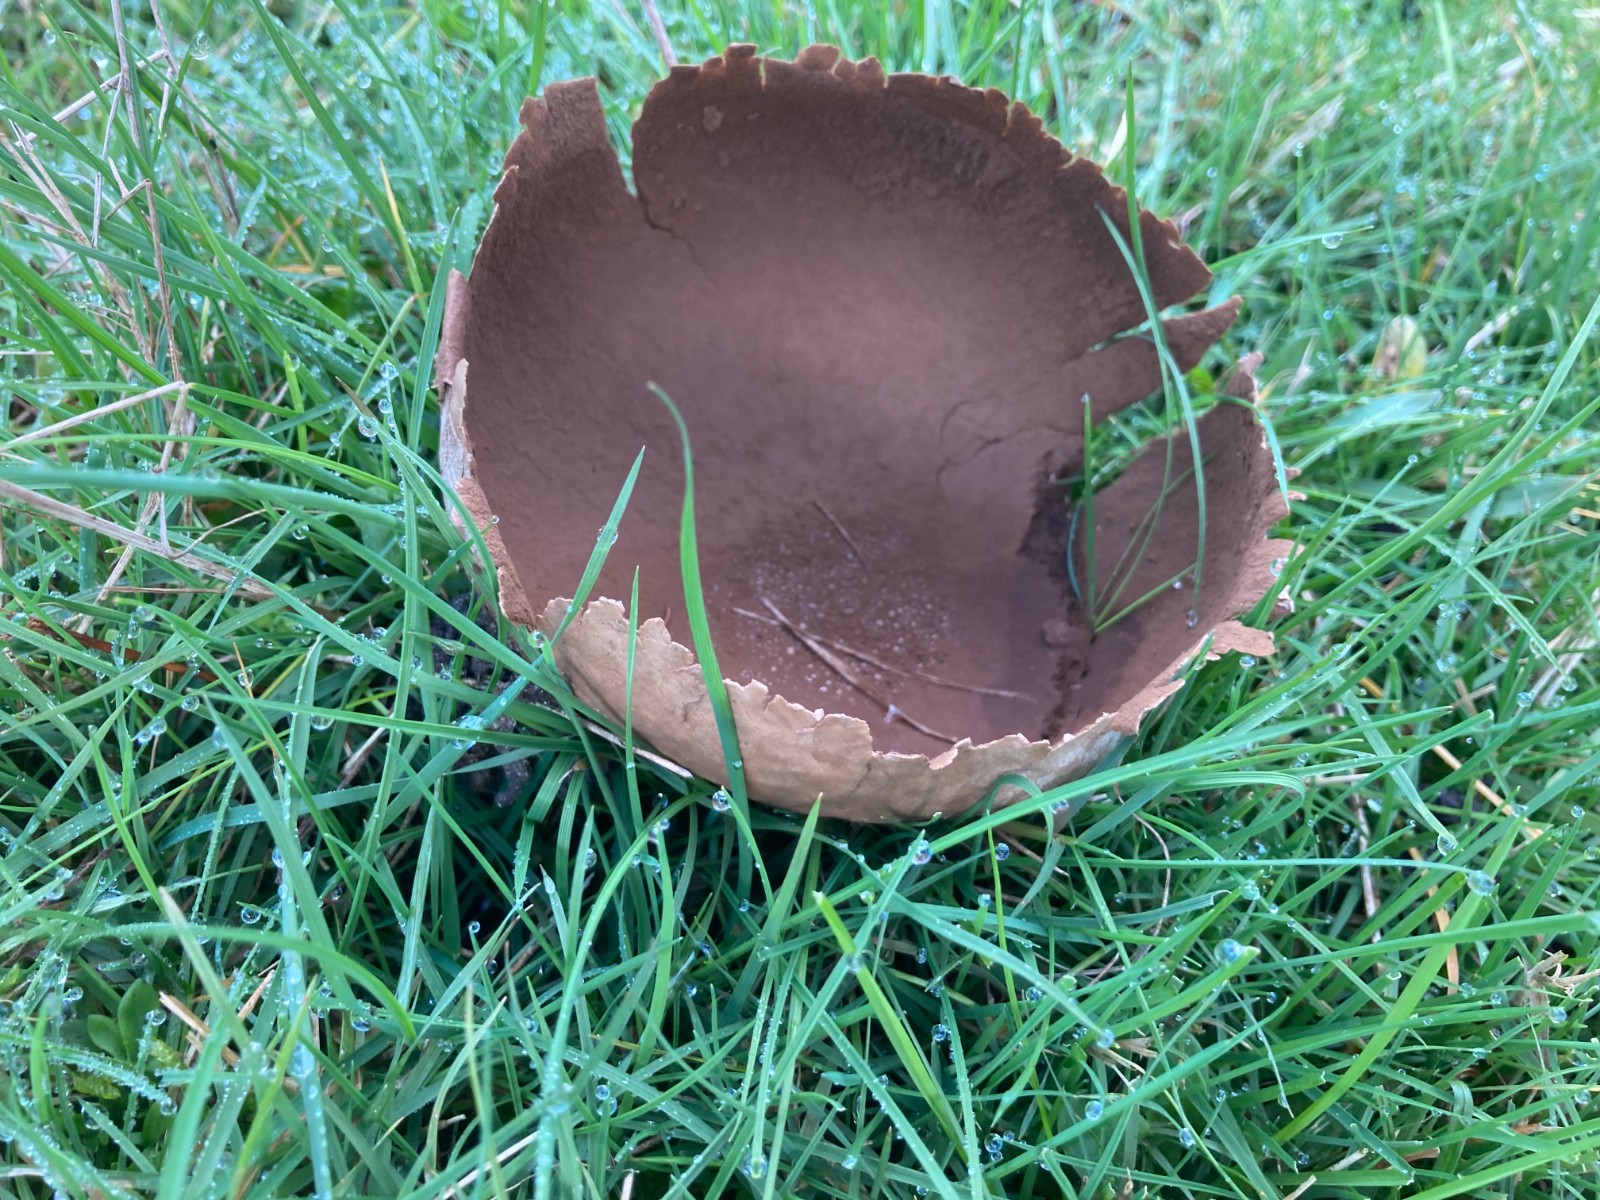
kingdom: Fungi
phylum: Basidiomycota
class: Agaricomycetes
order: Agaricales
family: Lycoperdaceae
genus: Bovistella
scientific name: Bovistella utriformis
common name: skællet støvbold
